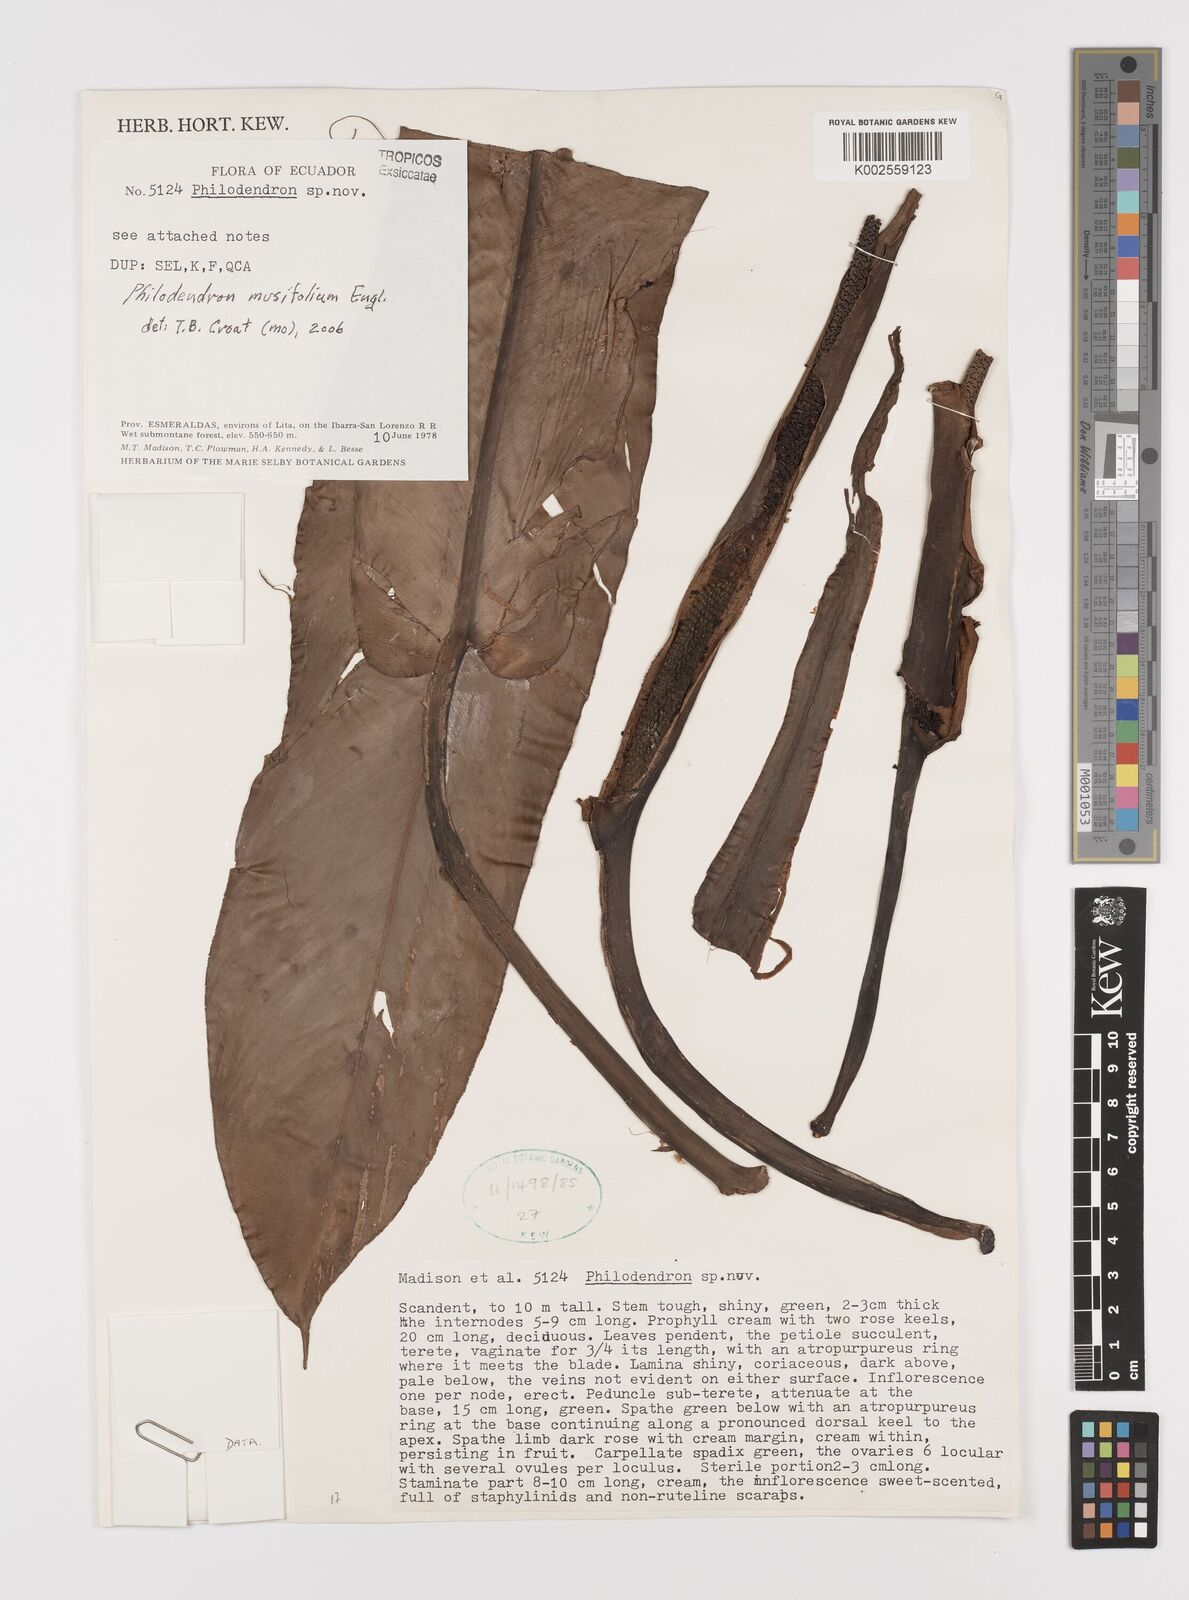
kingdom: Plantae
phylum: Tracheophyta
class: Liliopsida
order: Alismatales
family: Araceae
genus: Philodendron
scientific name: Philodendron musifolium
